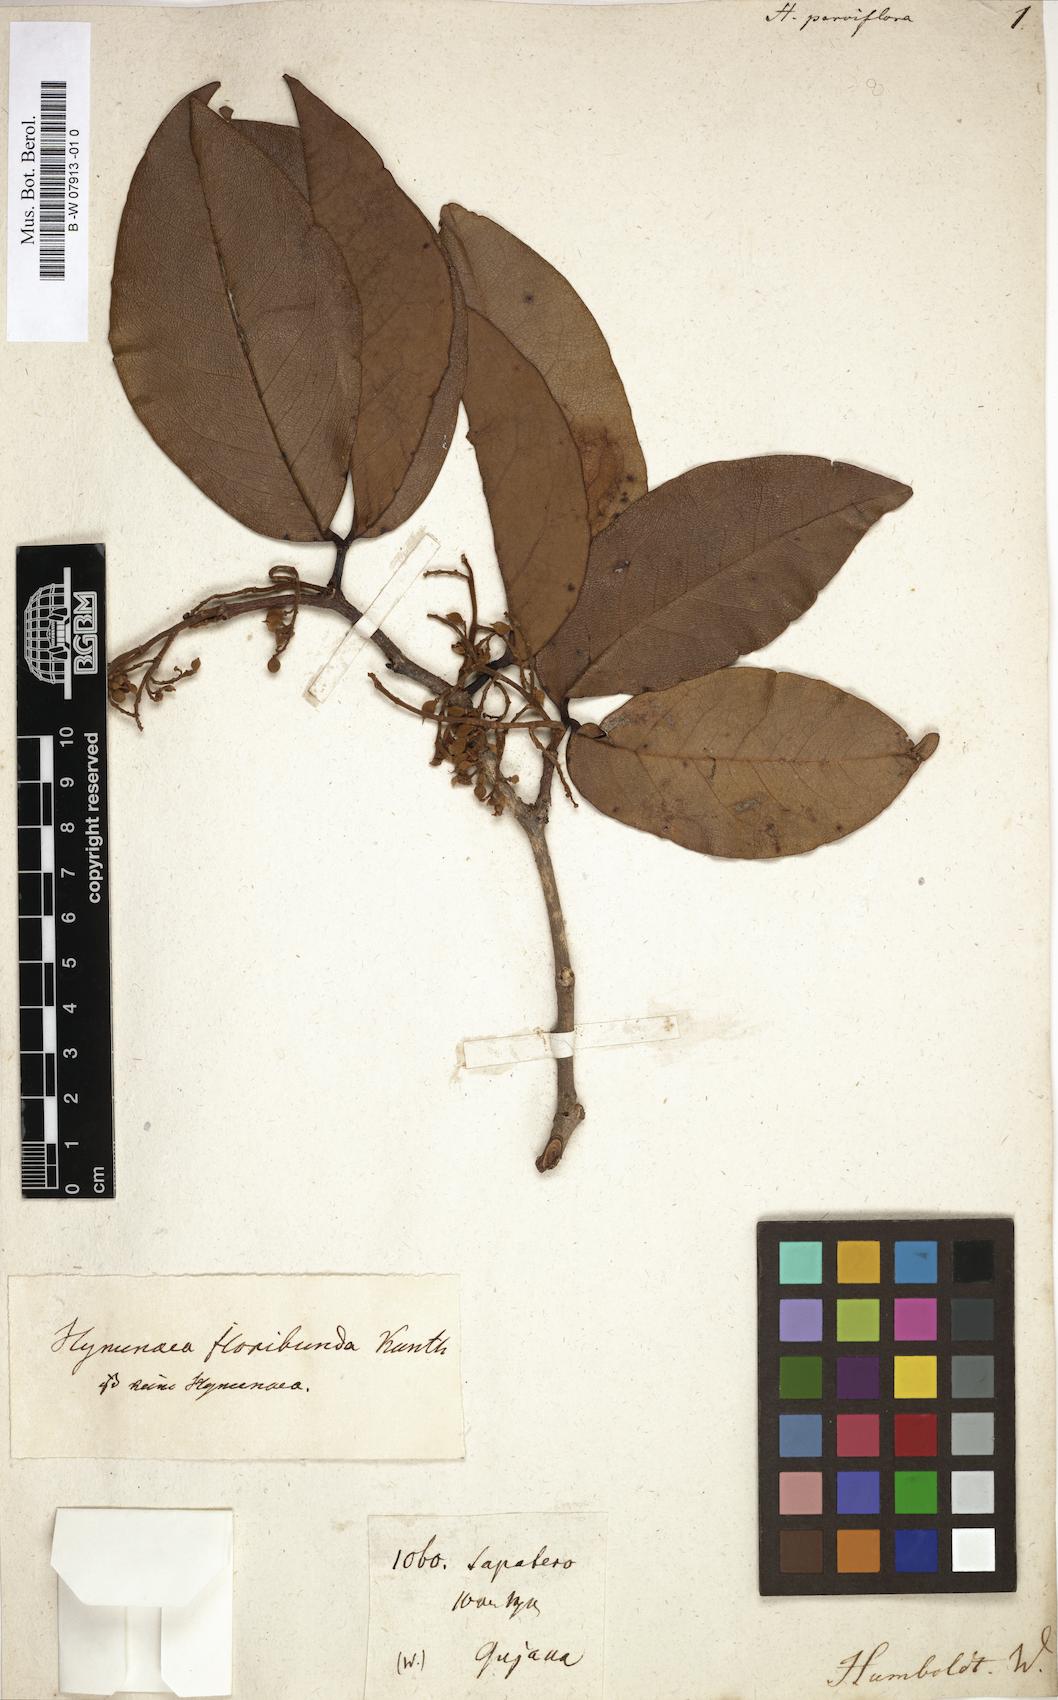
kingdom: Plantae
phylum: Tracheophyta
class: Magnoliopsida
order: Fabales
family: Fabaceae
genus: Hymenaea
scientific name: Hymenaea parvifolia
